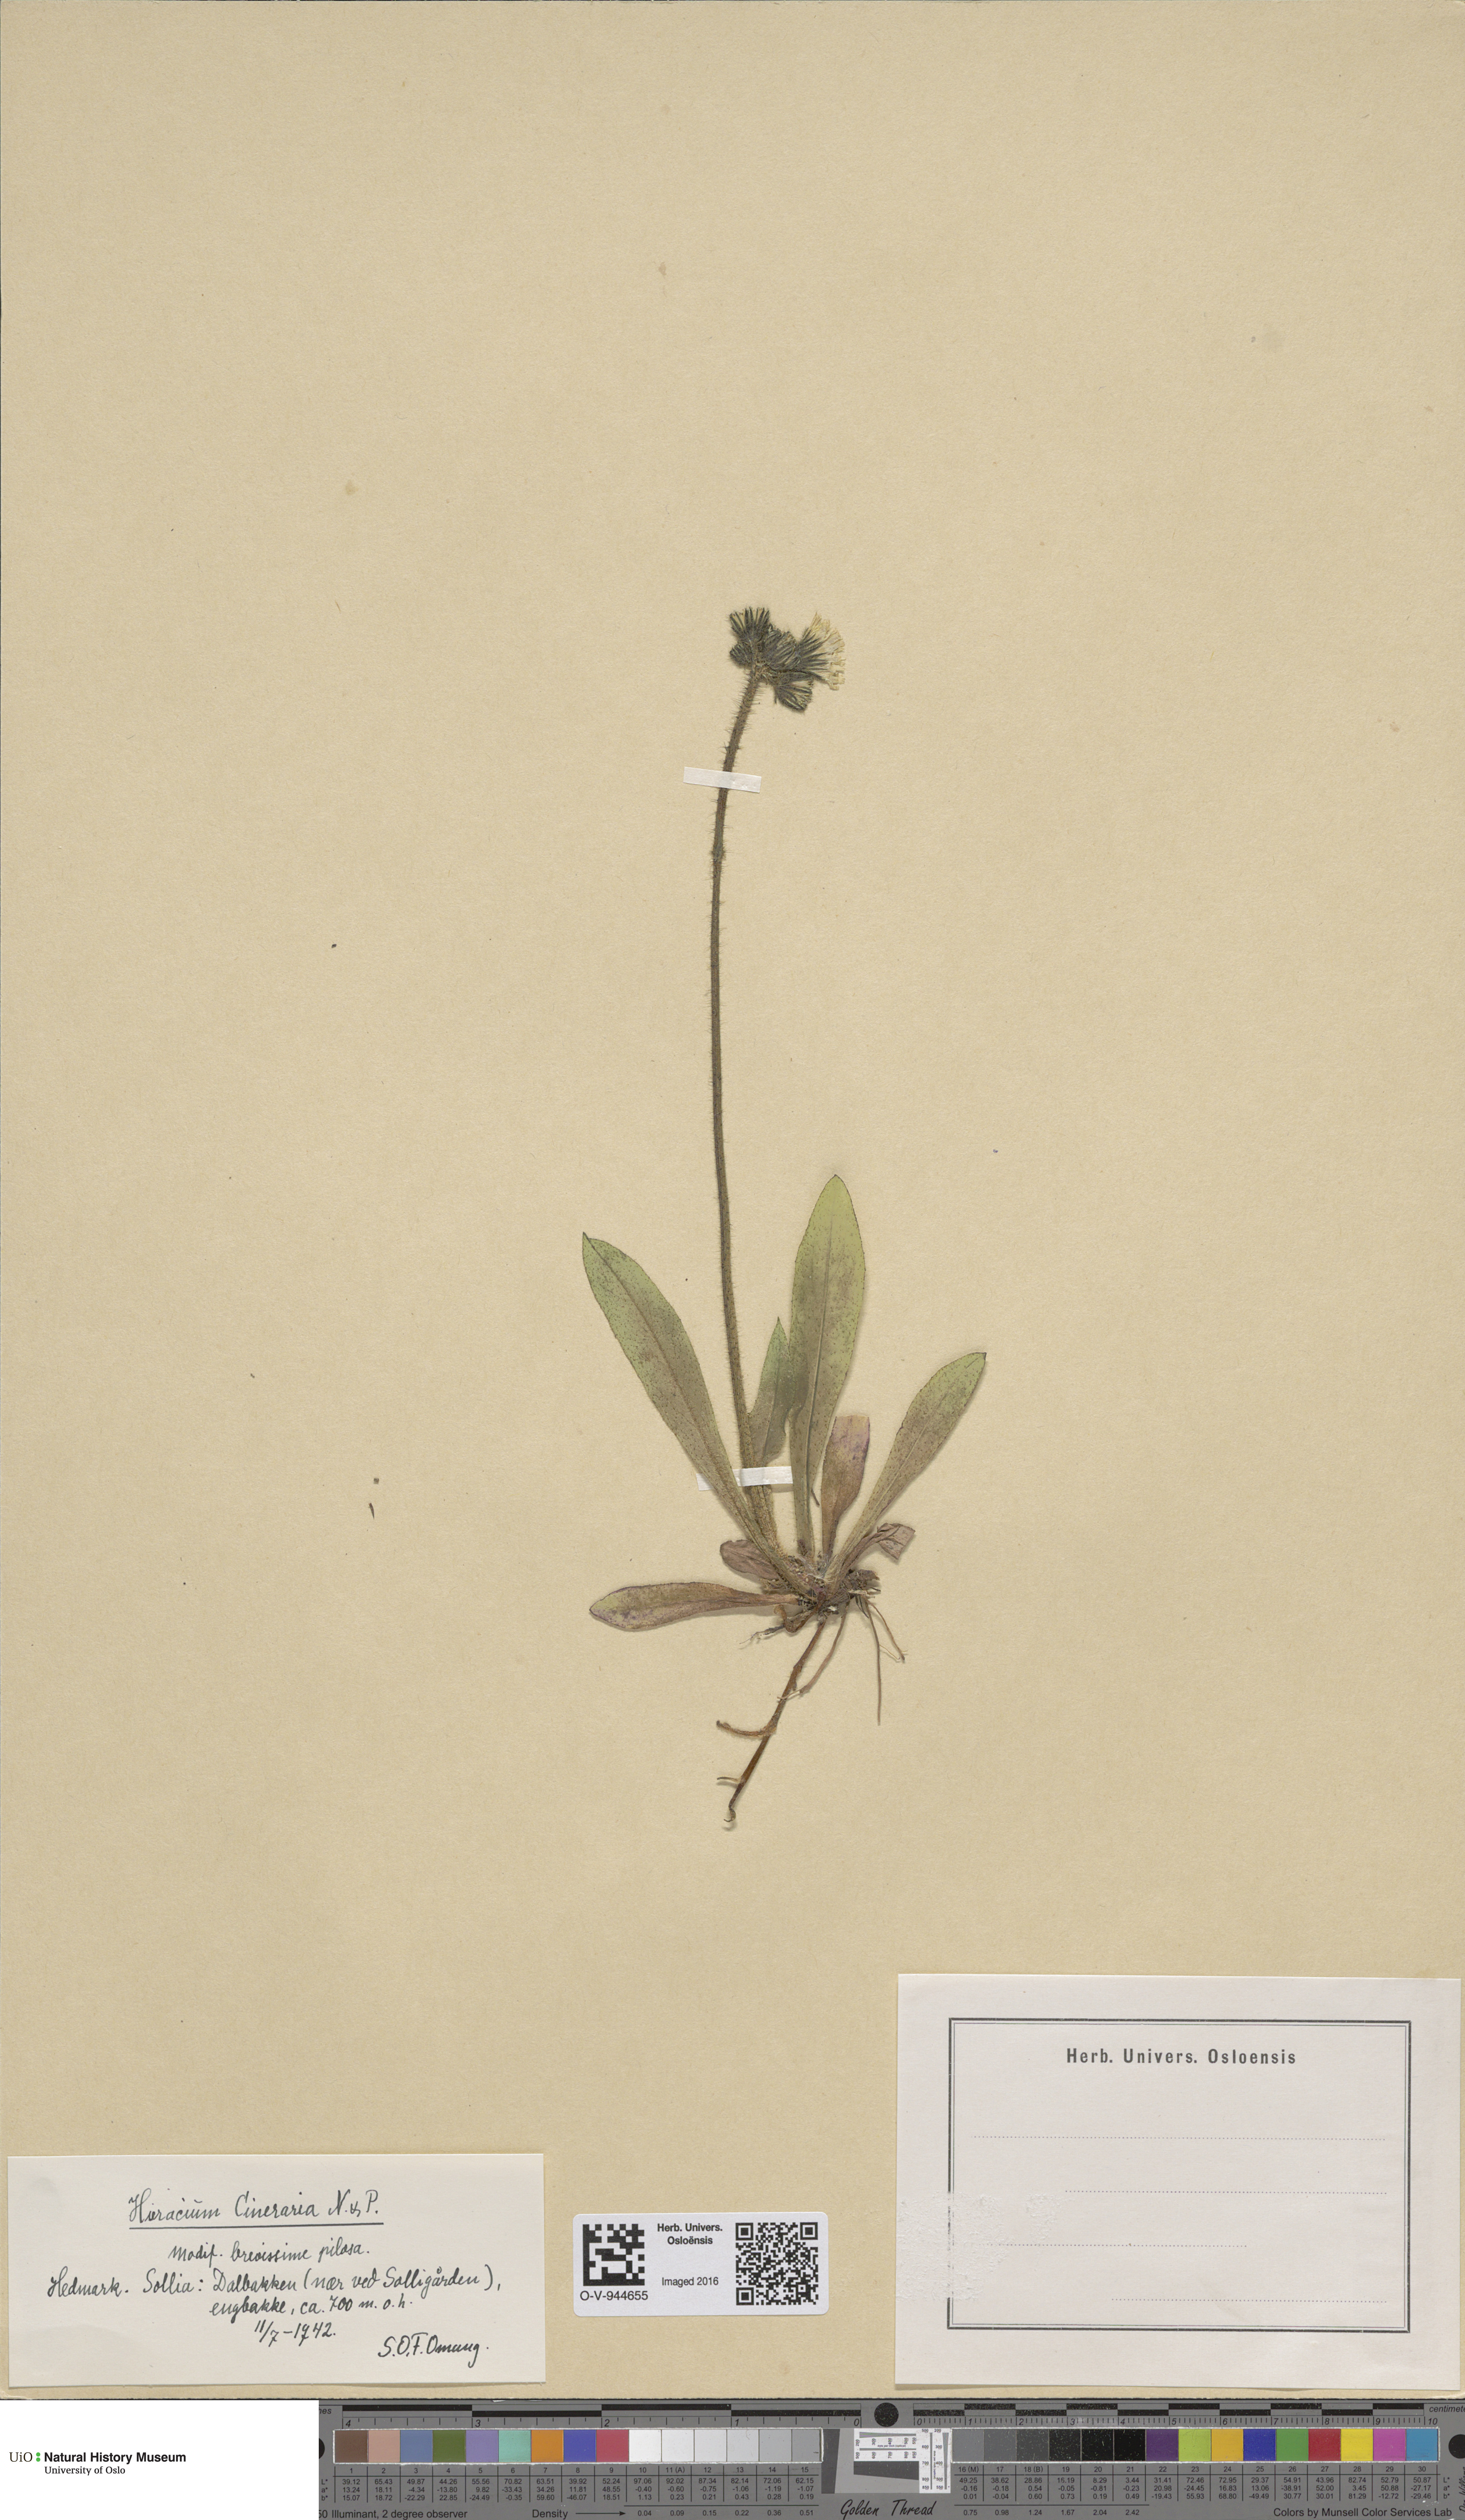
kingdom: Plantae
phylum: Tracheophyta
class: Magnoliopsida
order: Asterales
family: Asteraceae
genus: Pilosella
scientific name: Pilosella moechiadia
